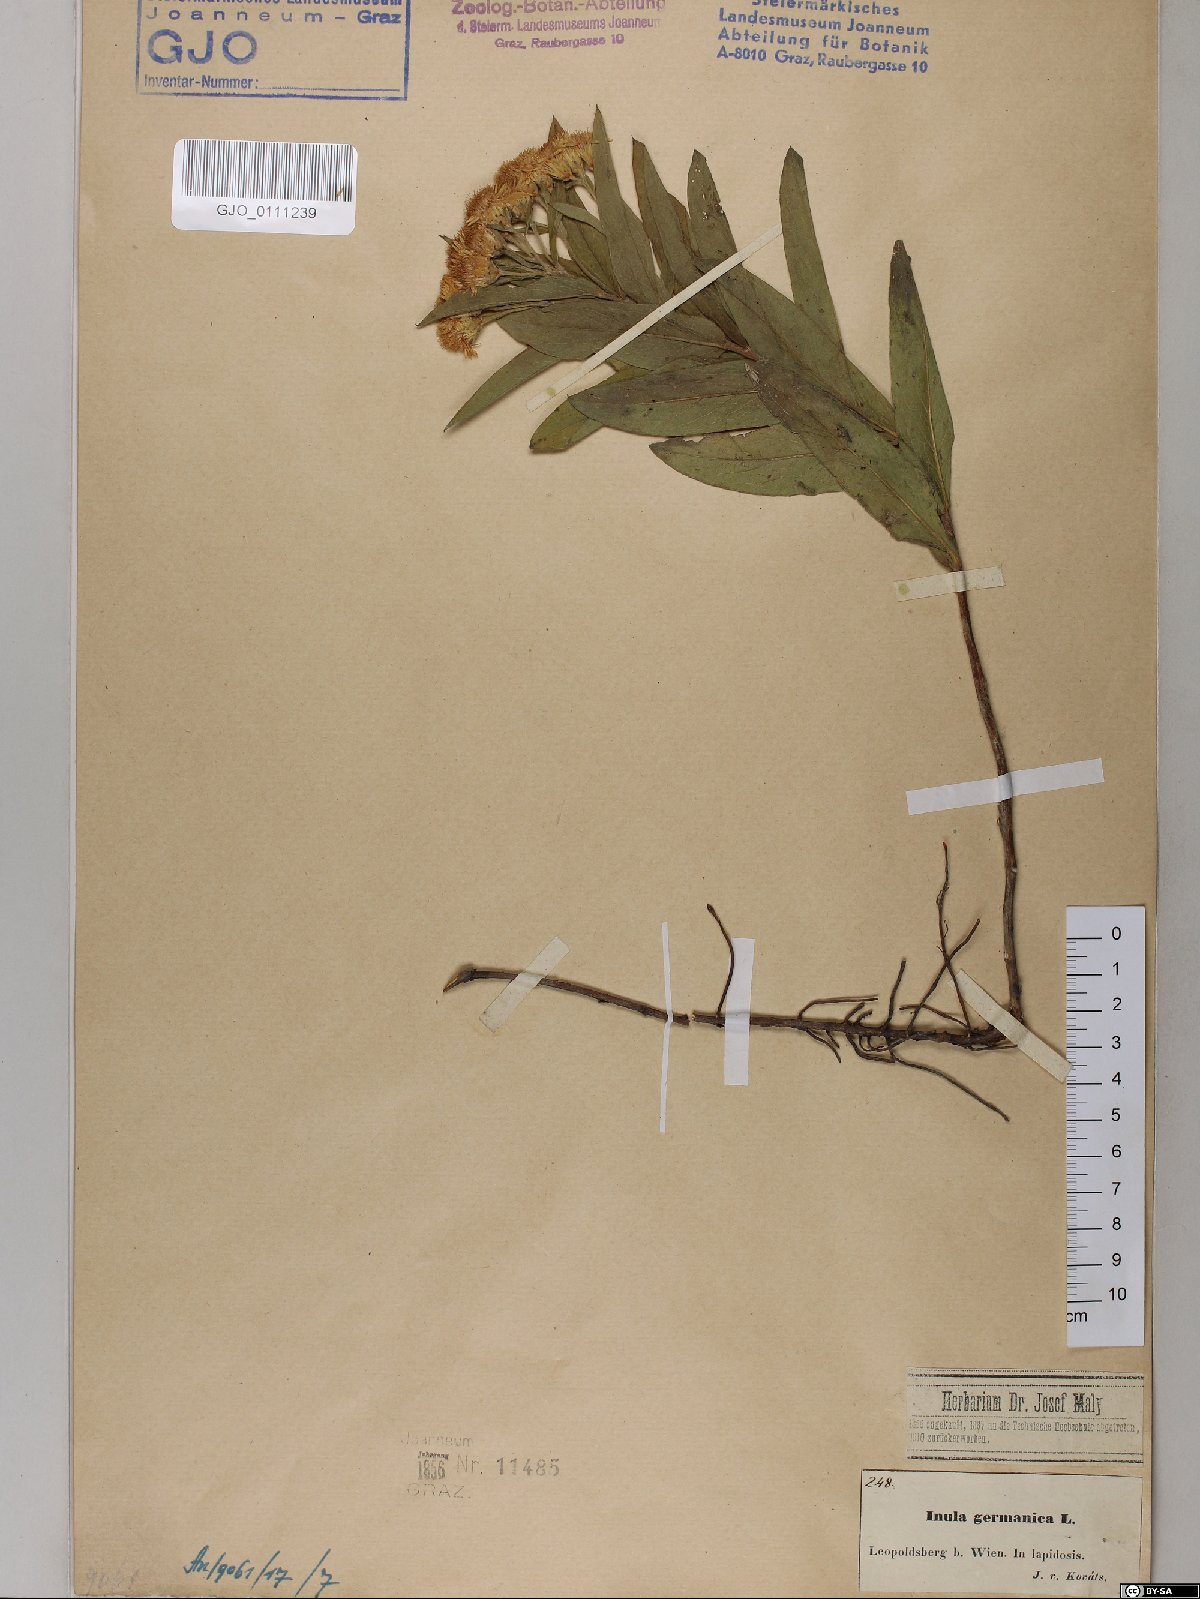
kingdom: Plantae
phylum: Tracheophyta
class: Magnoliopsida
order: Asterales
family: Asteraceae
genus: Pentanema
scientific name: Pentanema germanicum
